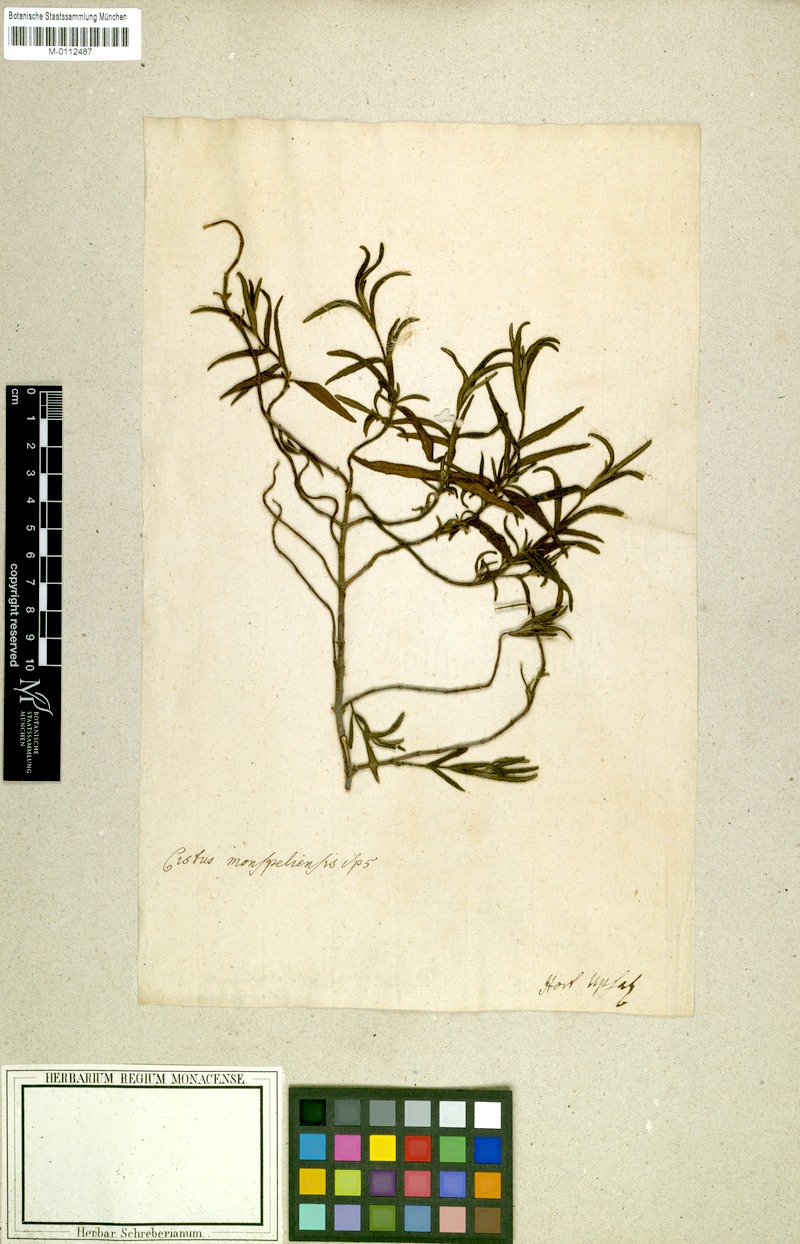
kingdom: Plantae
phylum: Tracheophyta
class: Magnoliopsida
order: Malvales
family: Cistaceae
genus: Cistus
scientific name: Cistus monspeliensis
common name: Montpelier cistus
